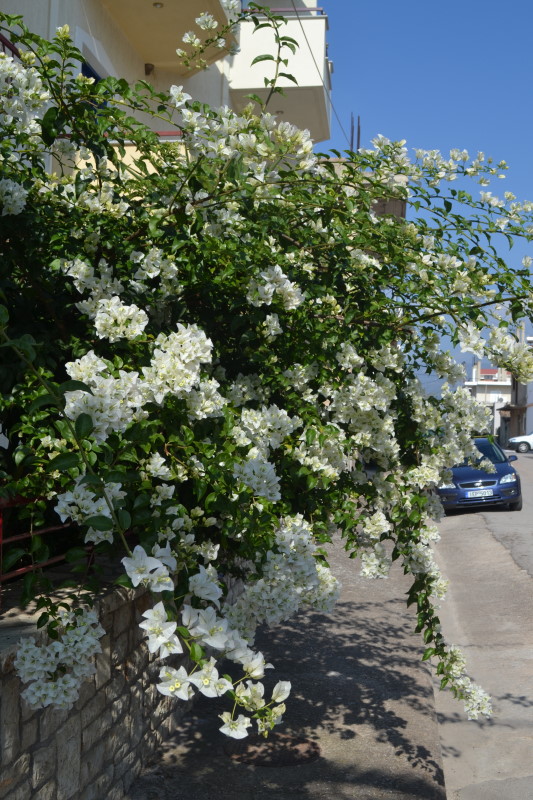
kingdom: Plantae
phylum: Tracheophyta
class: Magnoliopsida
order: Caryophyllales
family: Nyctaginaceae
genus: Bougainvillea
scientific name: Bougainvillea
